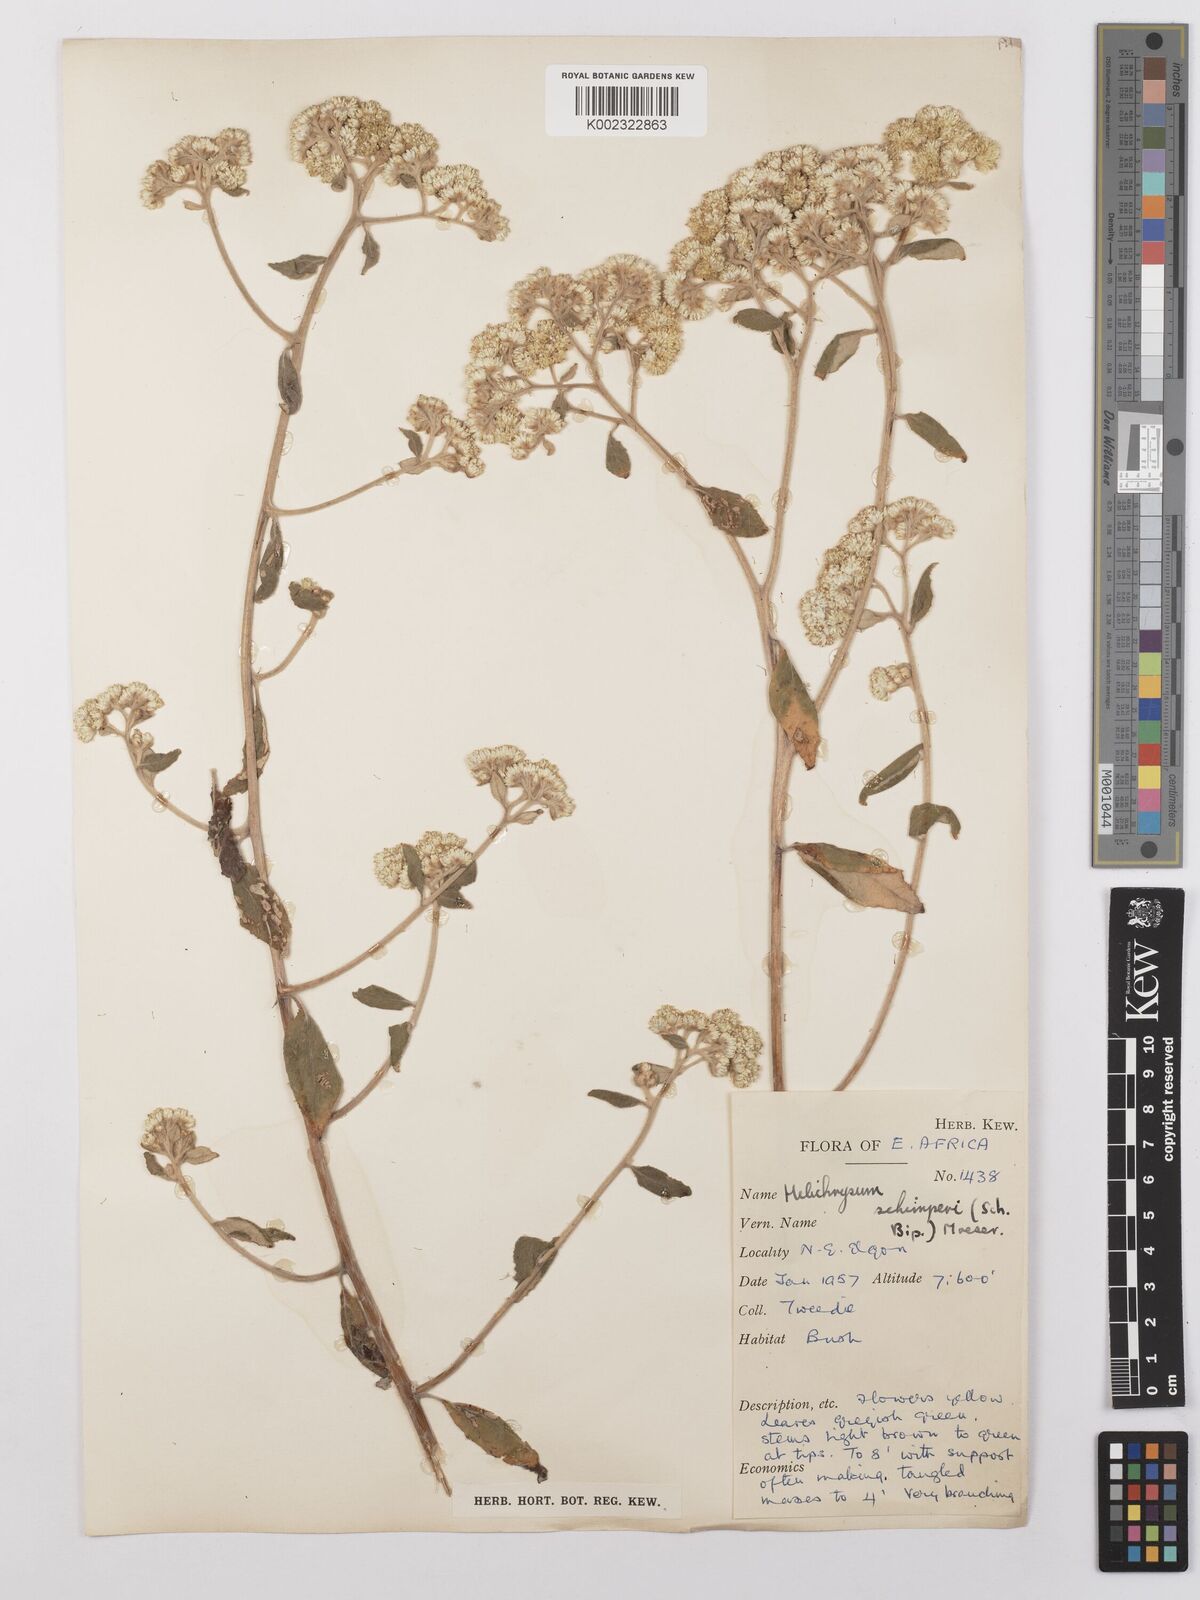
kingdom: Plantae
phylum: Tracheophyta
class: Magnoliopsida
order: Asterales
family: Asteraceae
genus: Helichrysum
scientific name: Helichrysum schimperi
